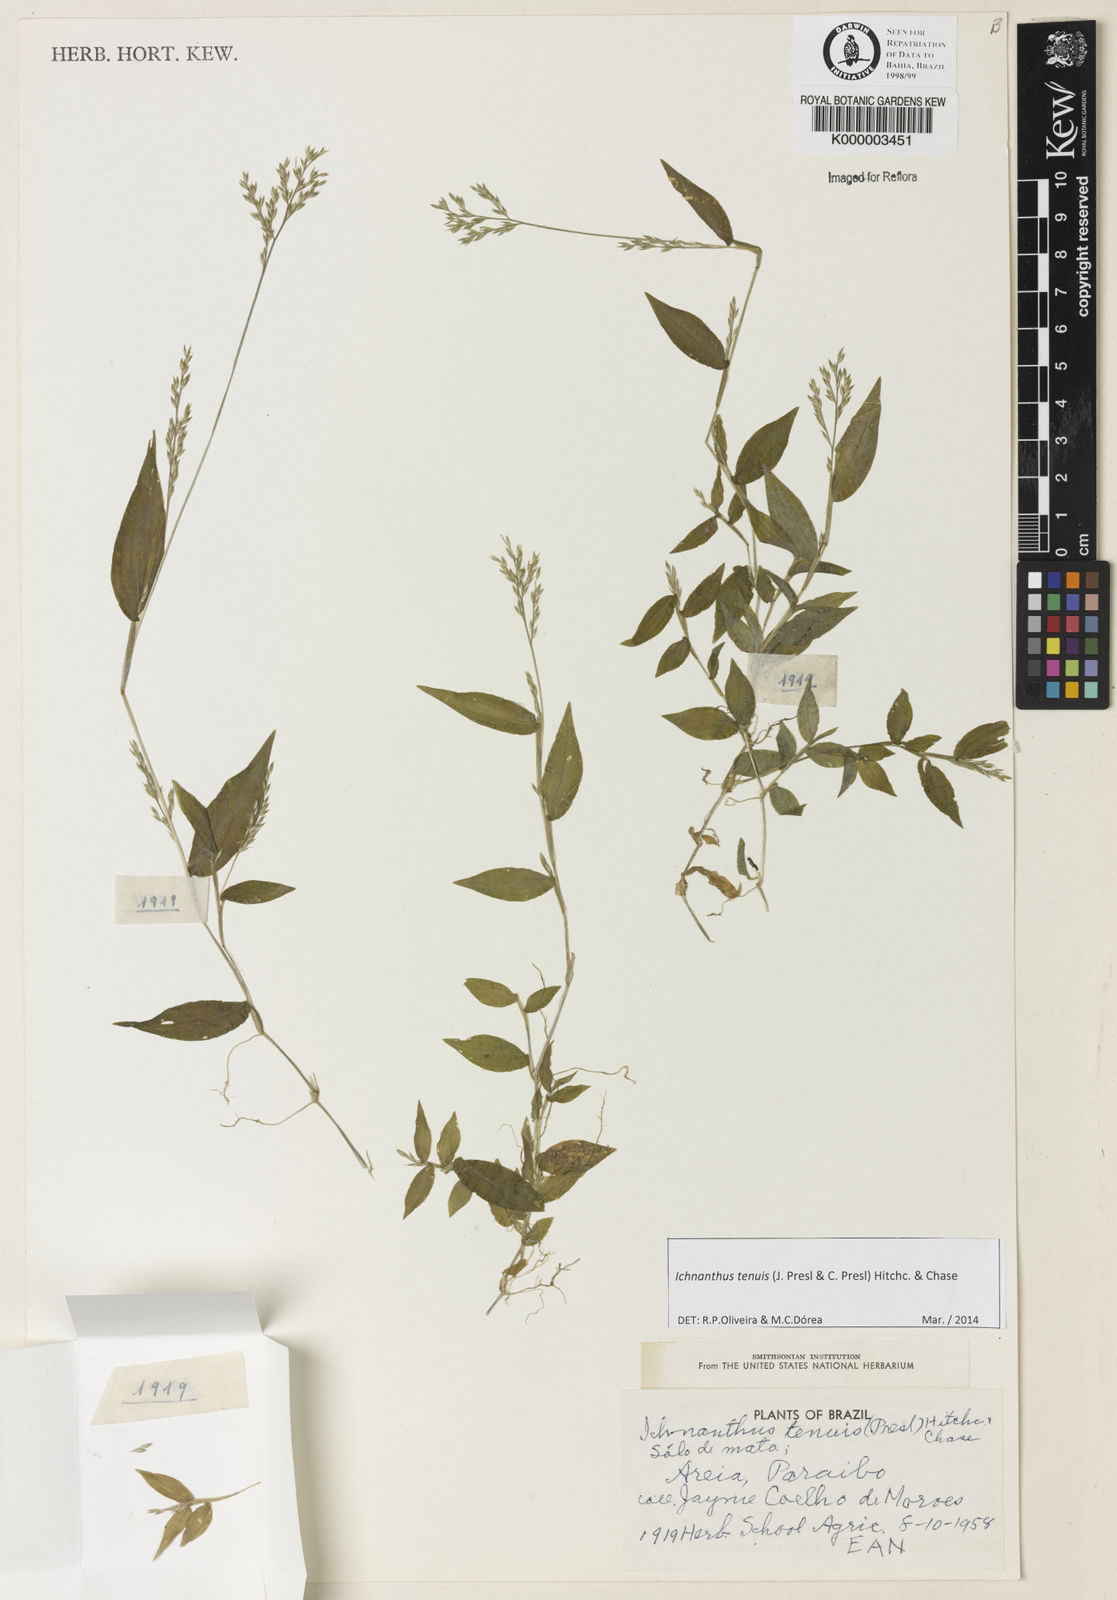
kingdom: Plantae
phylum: Tracheophyta
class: Liliopsida
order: Poales
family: Poaceae
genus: Ichnanthus
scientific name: Ichnanthus tenuis
